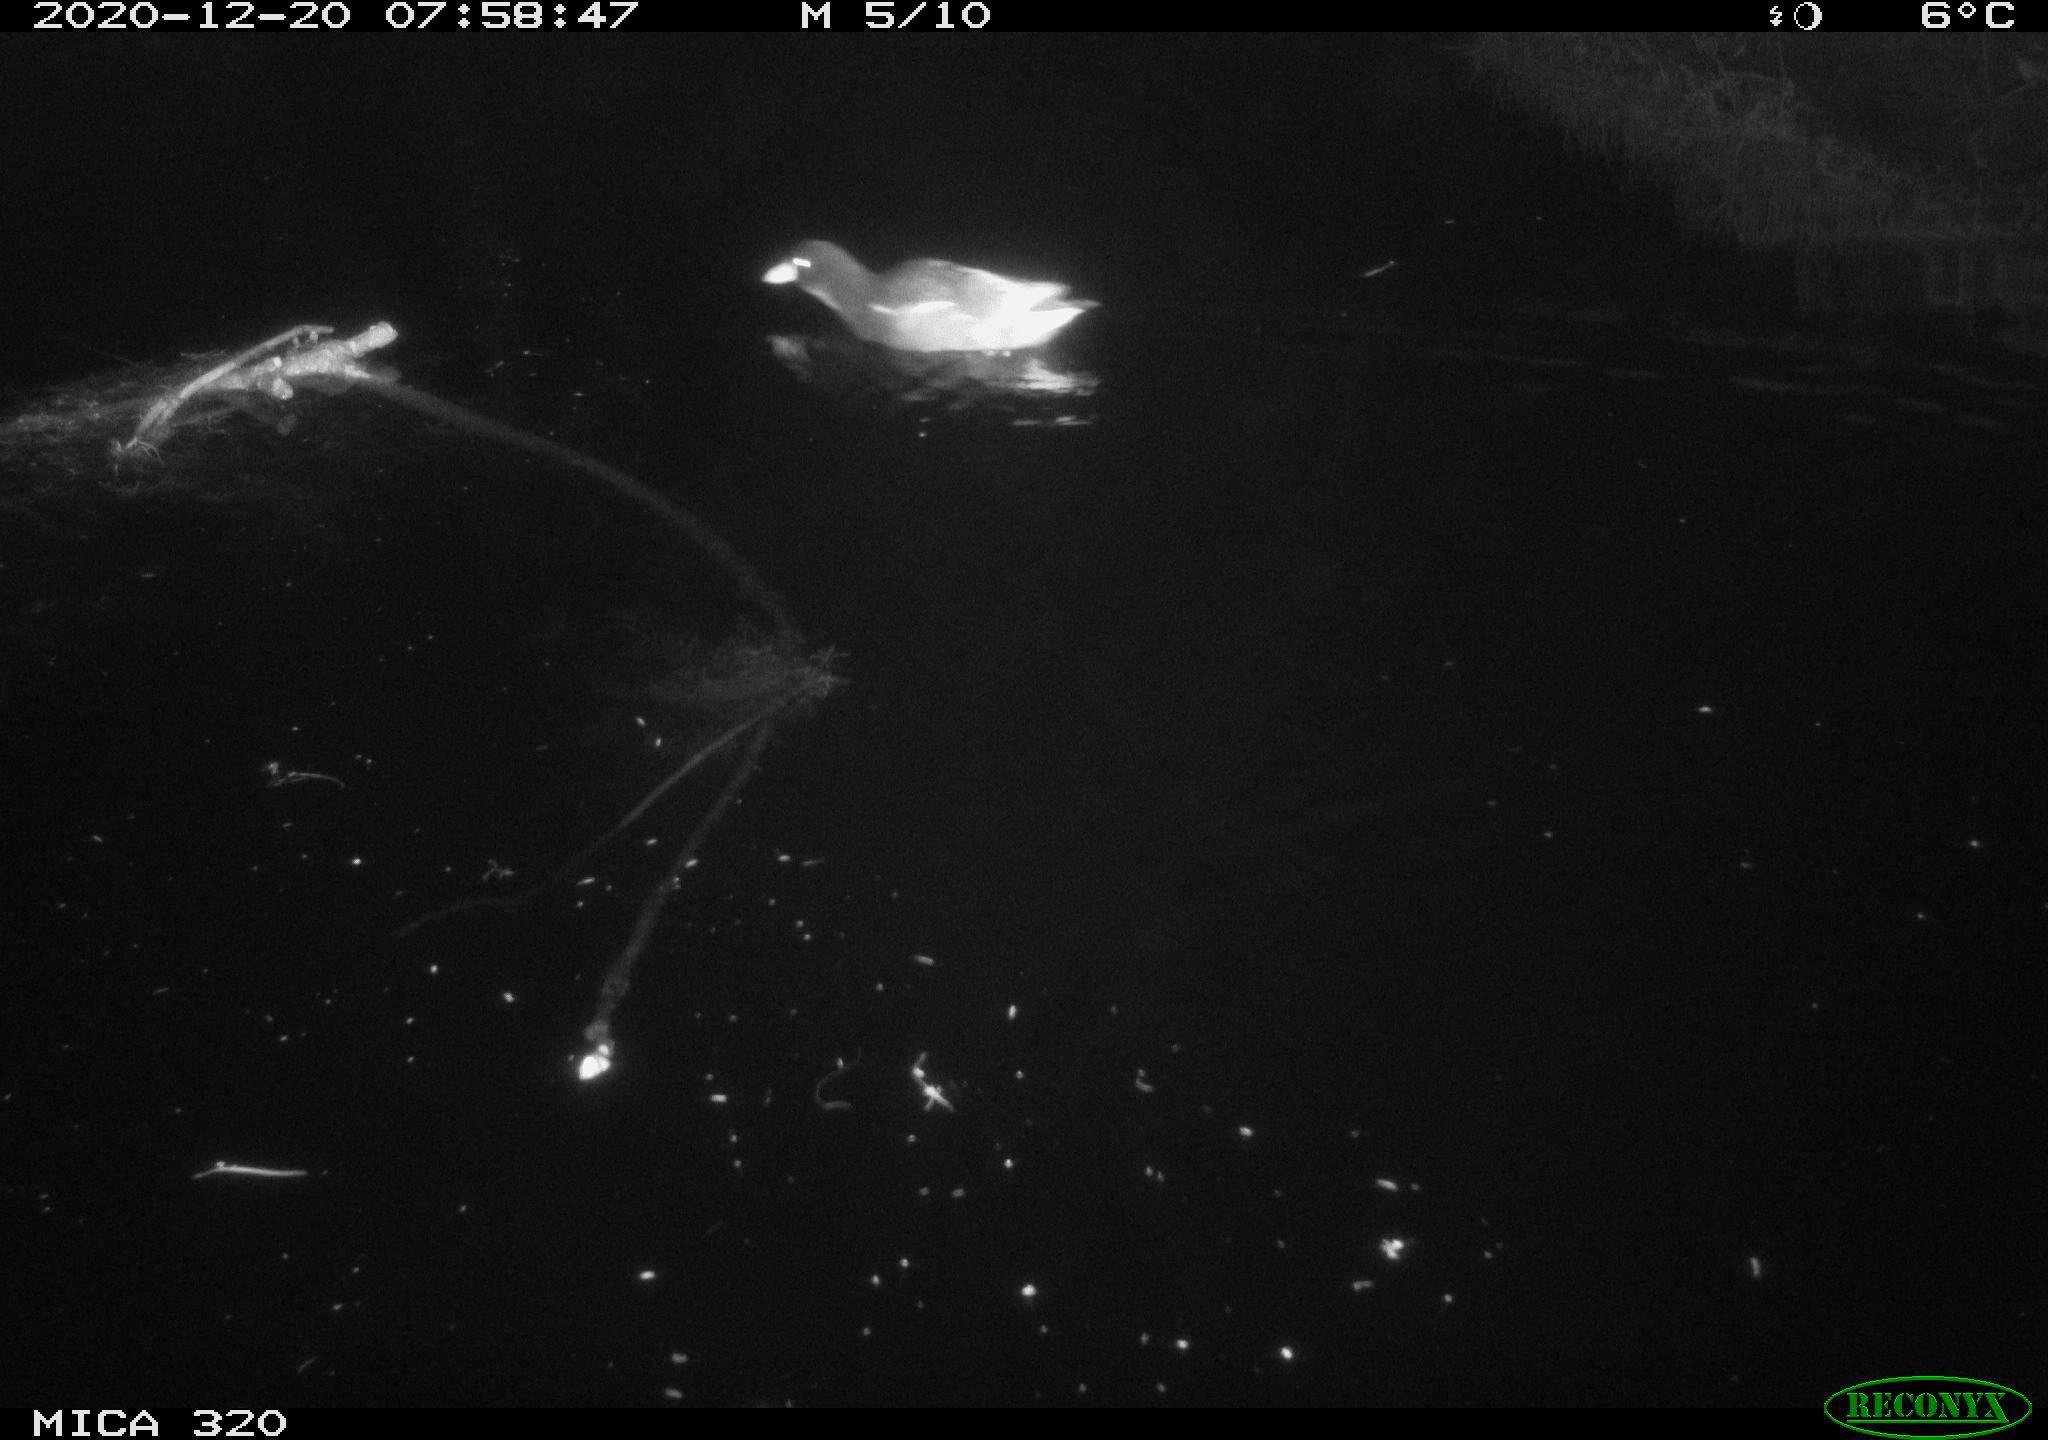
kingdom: Animalia
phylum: Chordata
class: Aves
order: Gruiformes
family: Rallidae
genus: Gallinula
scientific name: Gallinula chloropus
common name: Common moorhen
